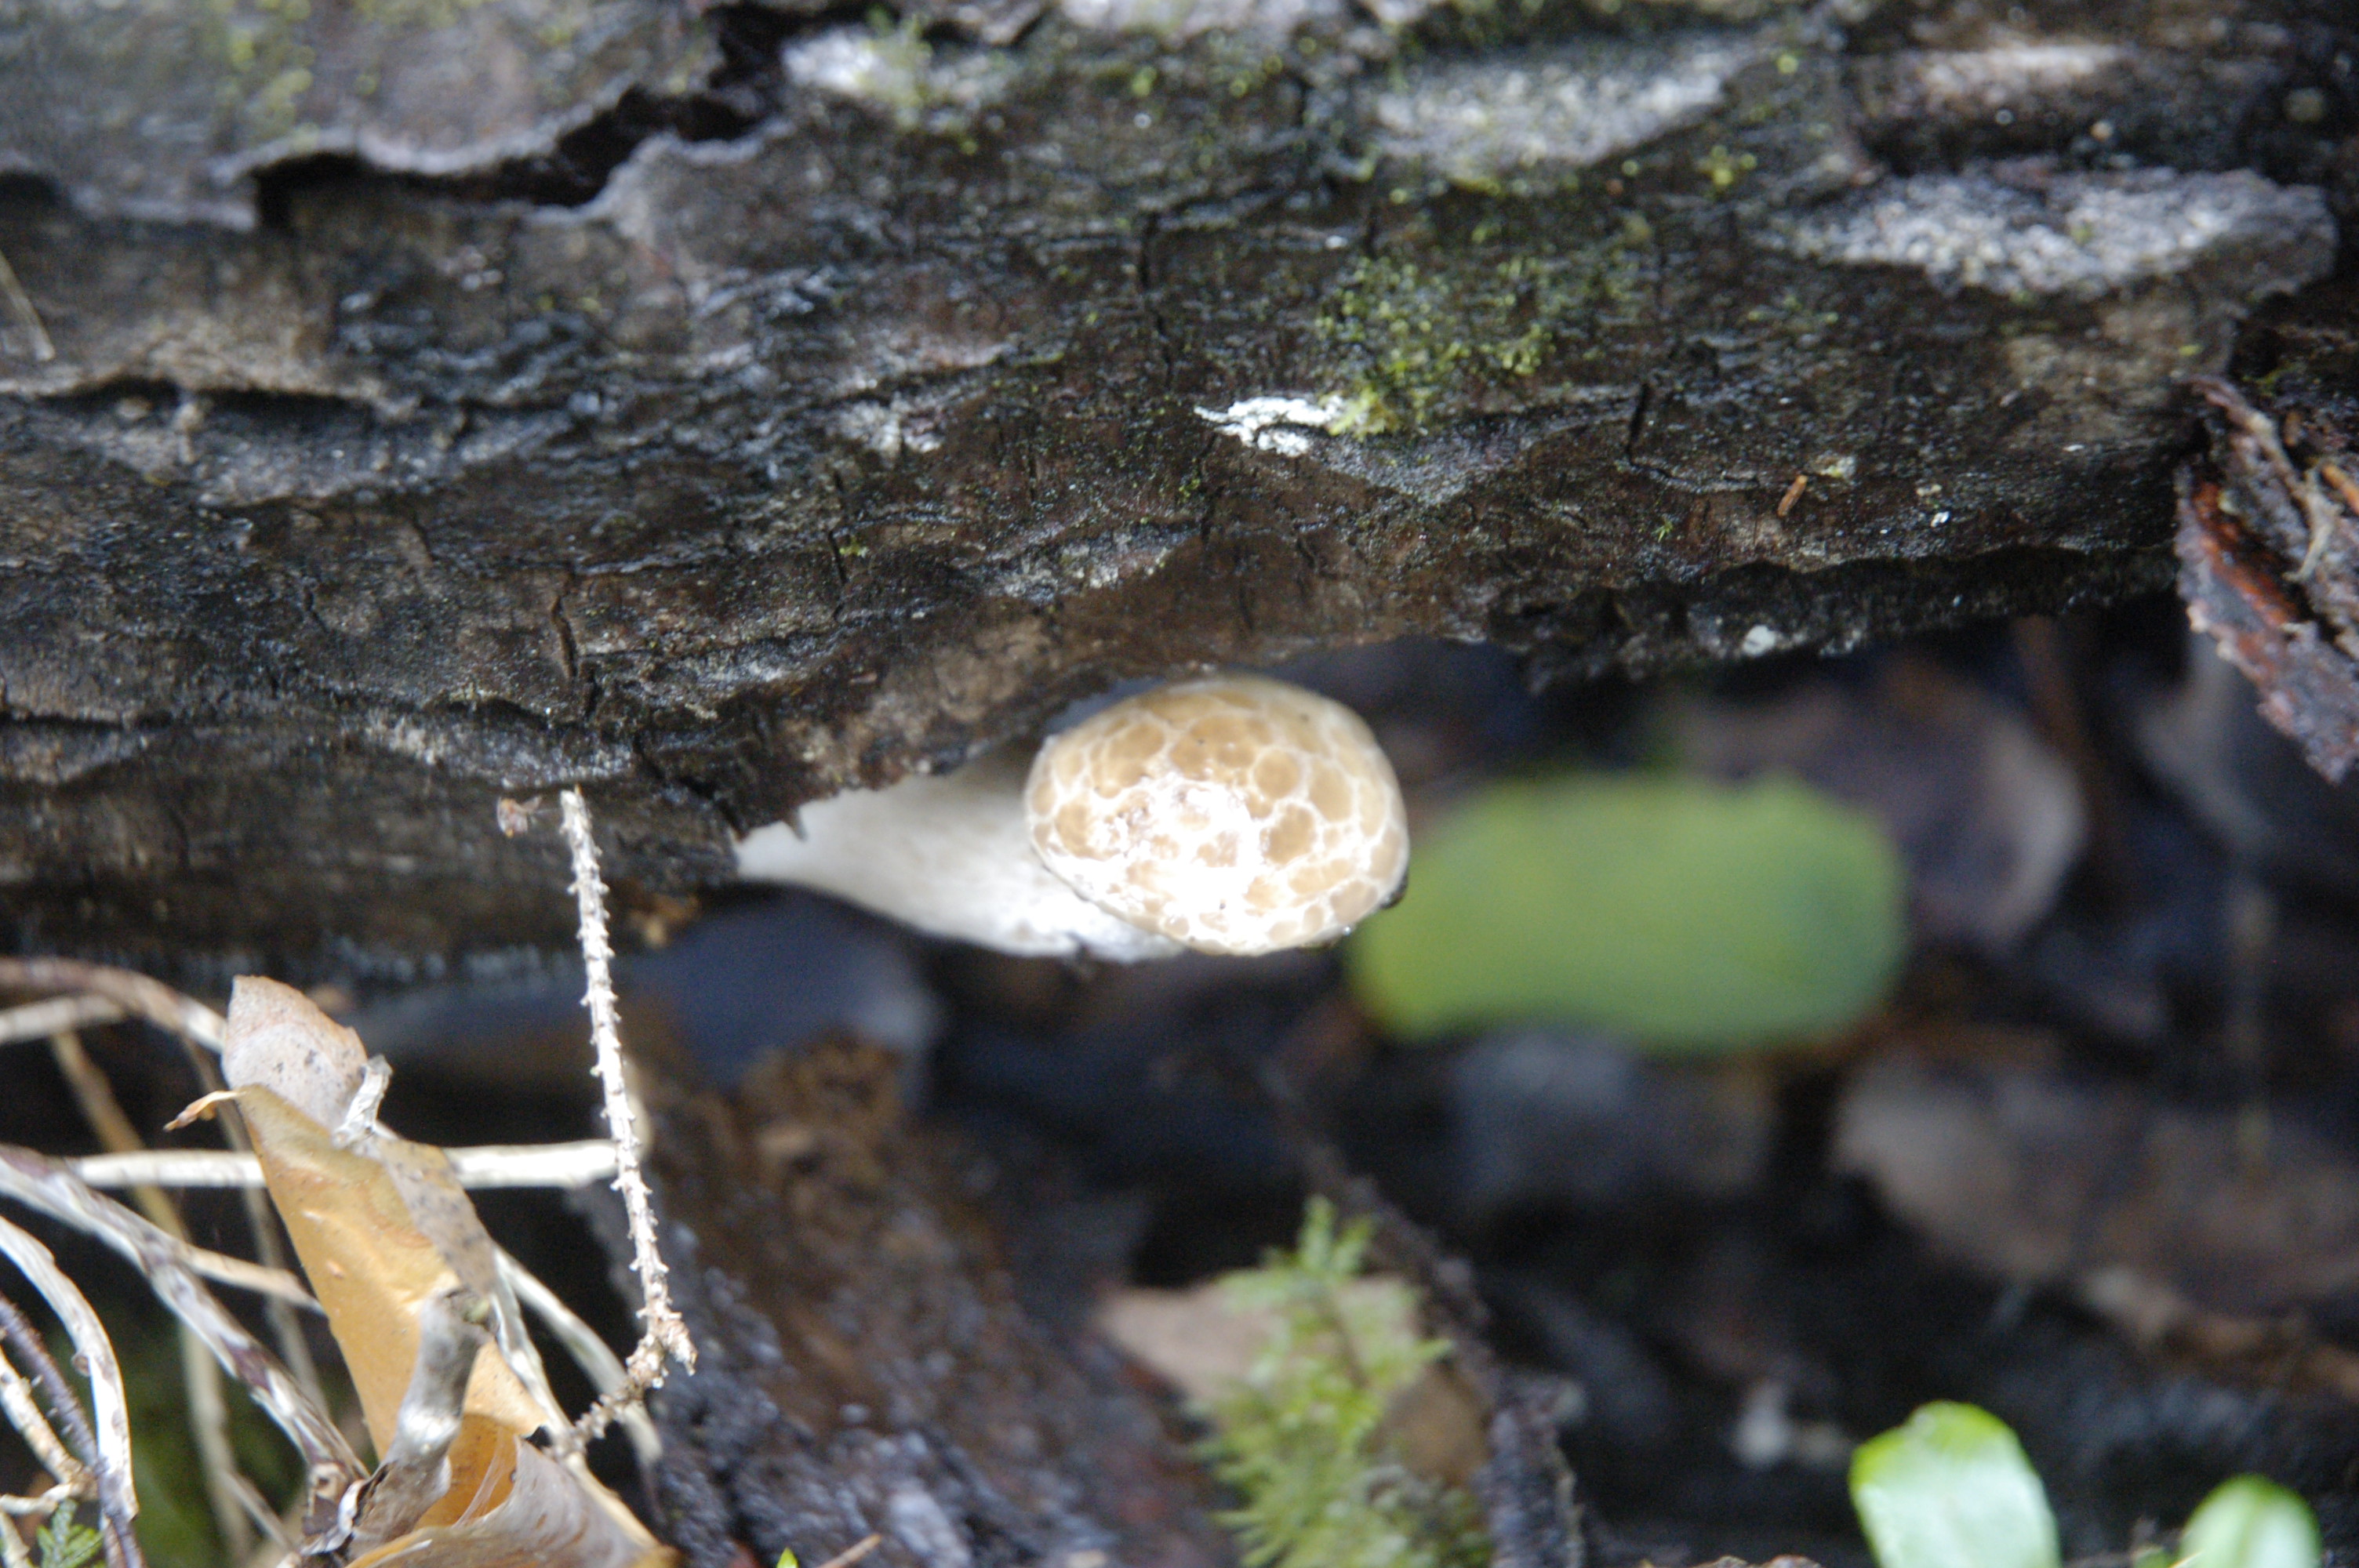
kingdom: Fungi
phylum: Basidiomycota
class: Agaricomycetes
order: Agaricales
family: Lyophyllaceae
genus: Hypsizygus
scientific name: Hypsizygus tessulatus
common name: Beech mushroom
